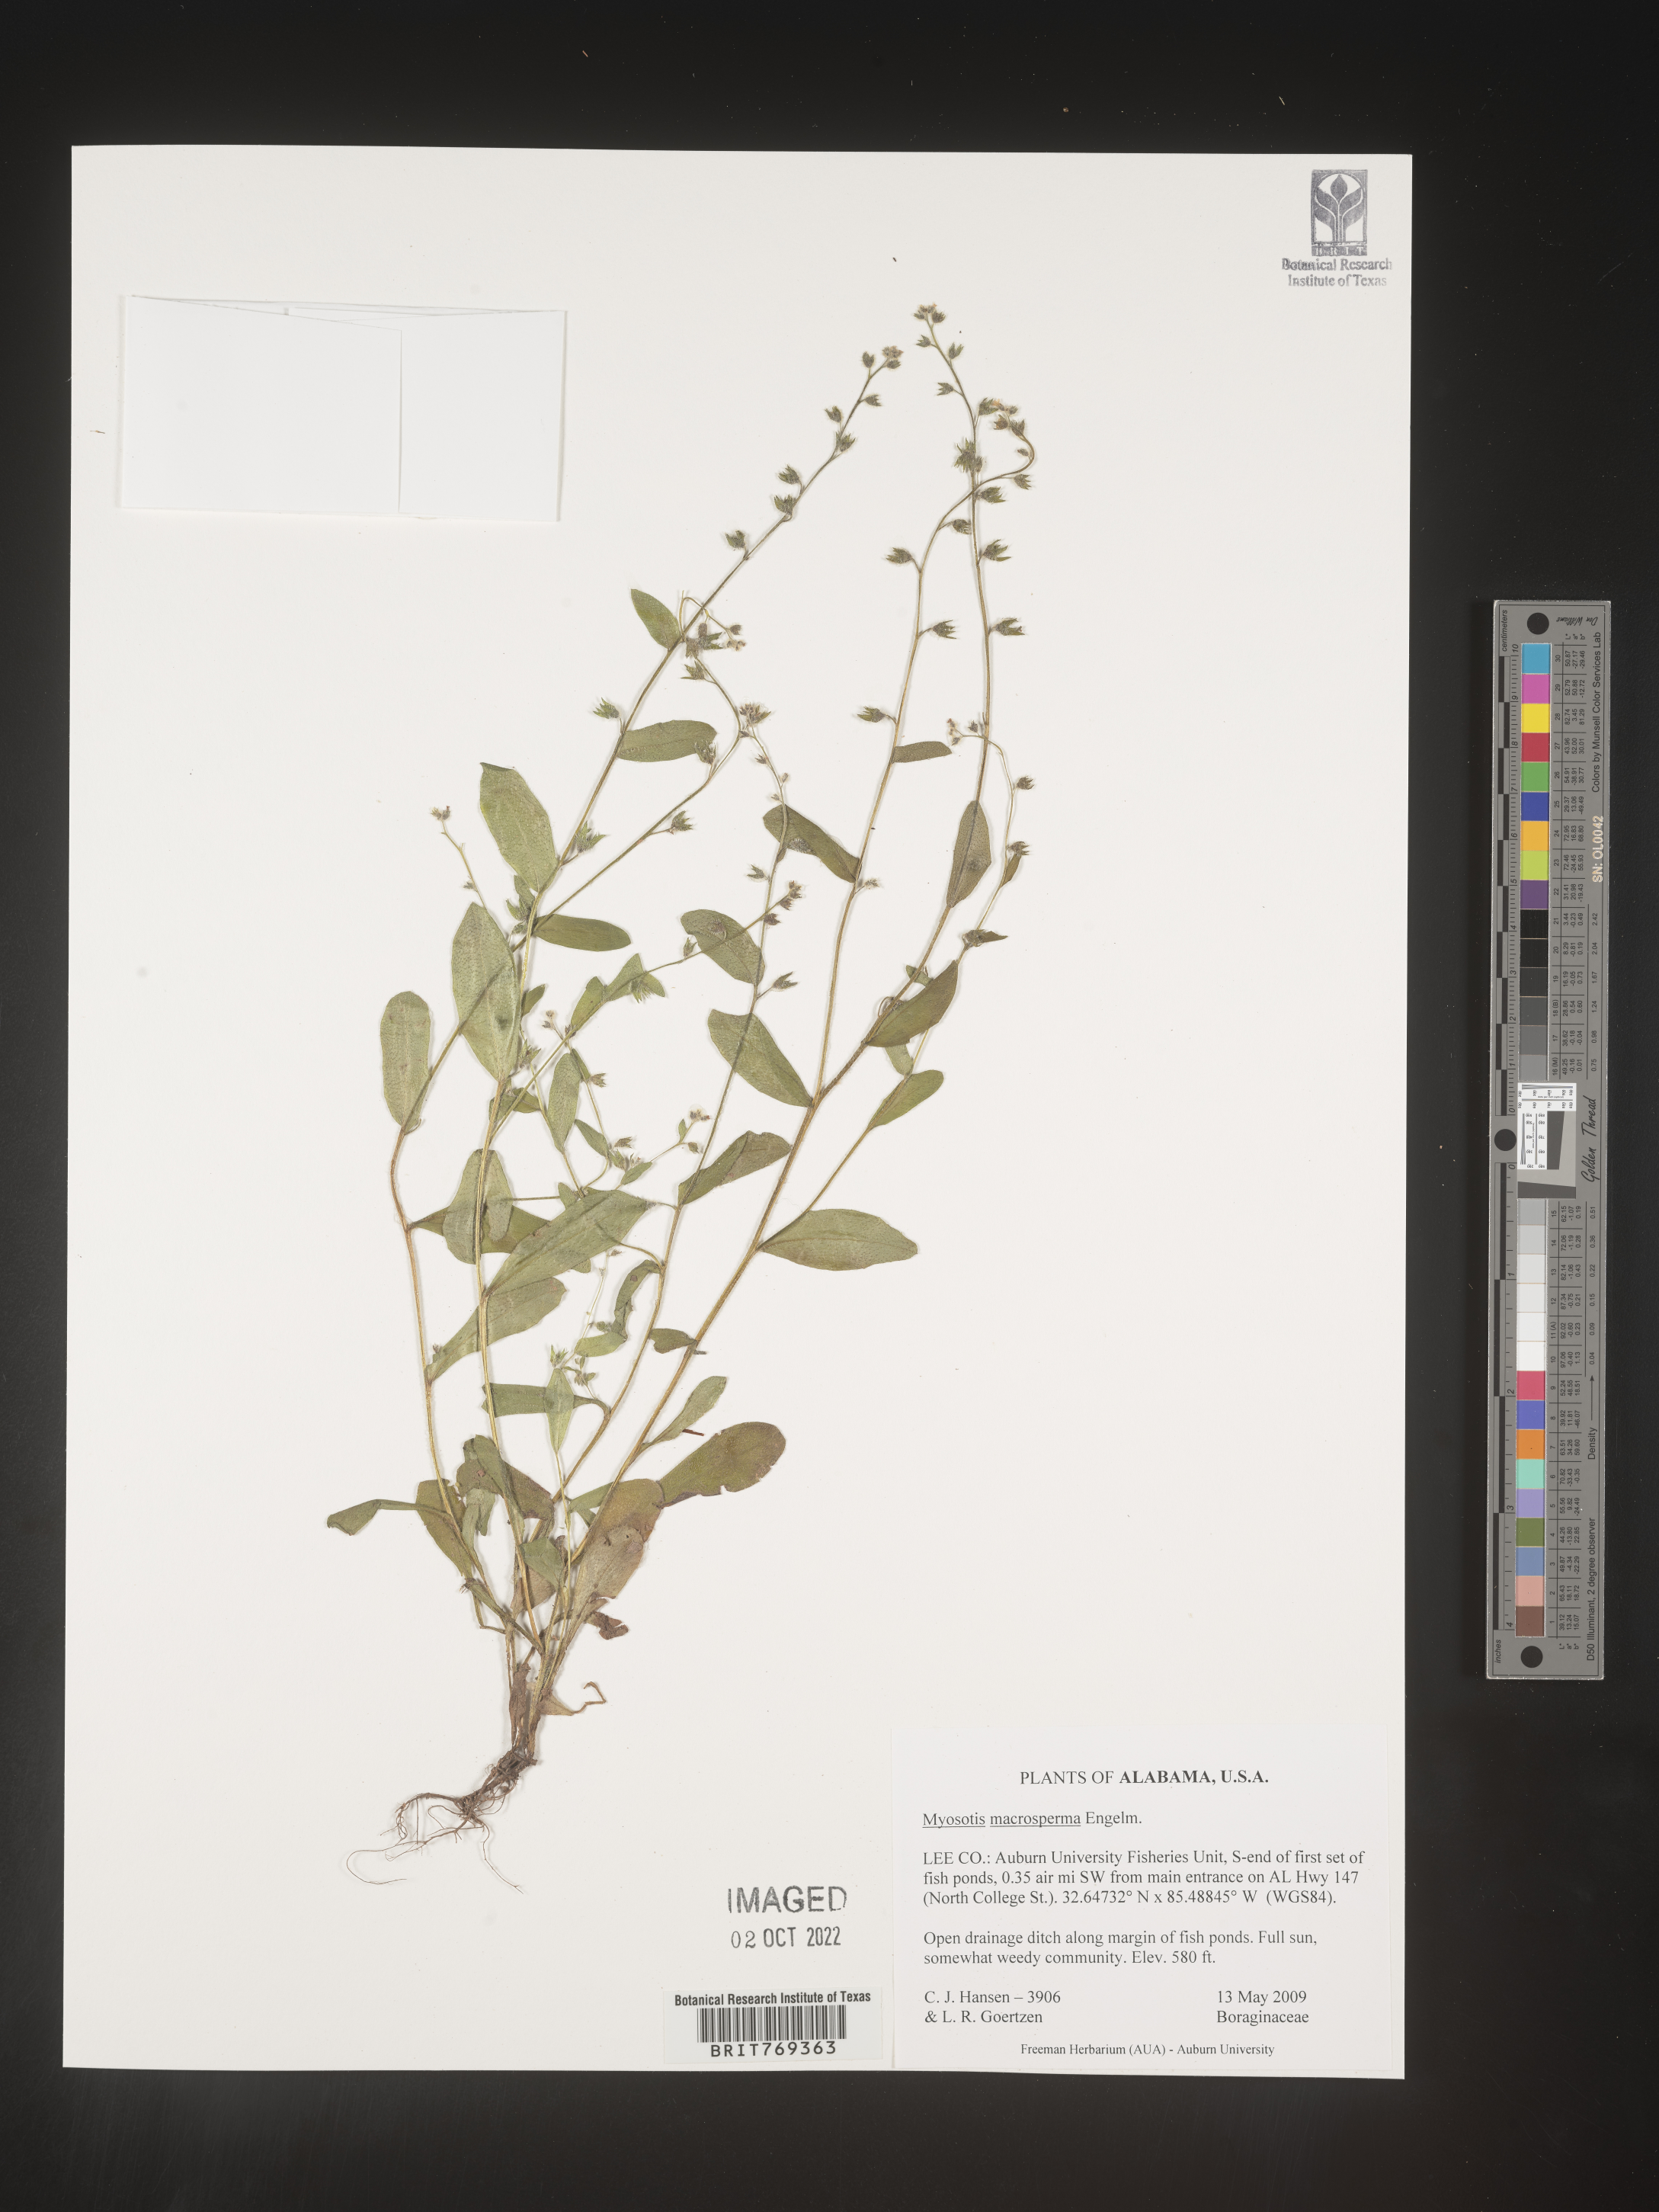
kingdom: Plantae
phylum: Tracheophyta
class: Magnoliopsida
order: Boraginales
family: Boraginaceae
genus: Myosotis
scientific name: Myosotis macrosperma
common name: Large-seed forget-me-not
